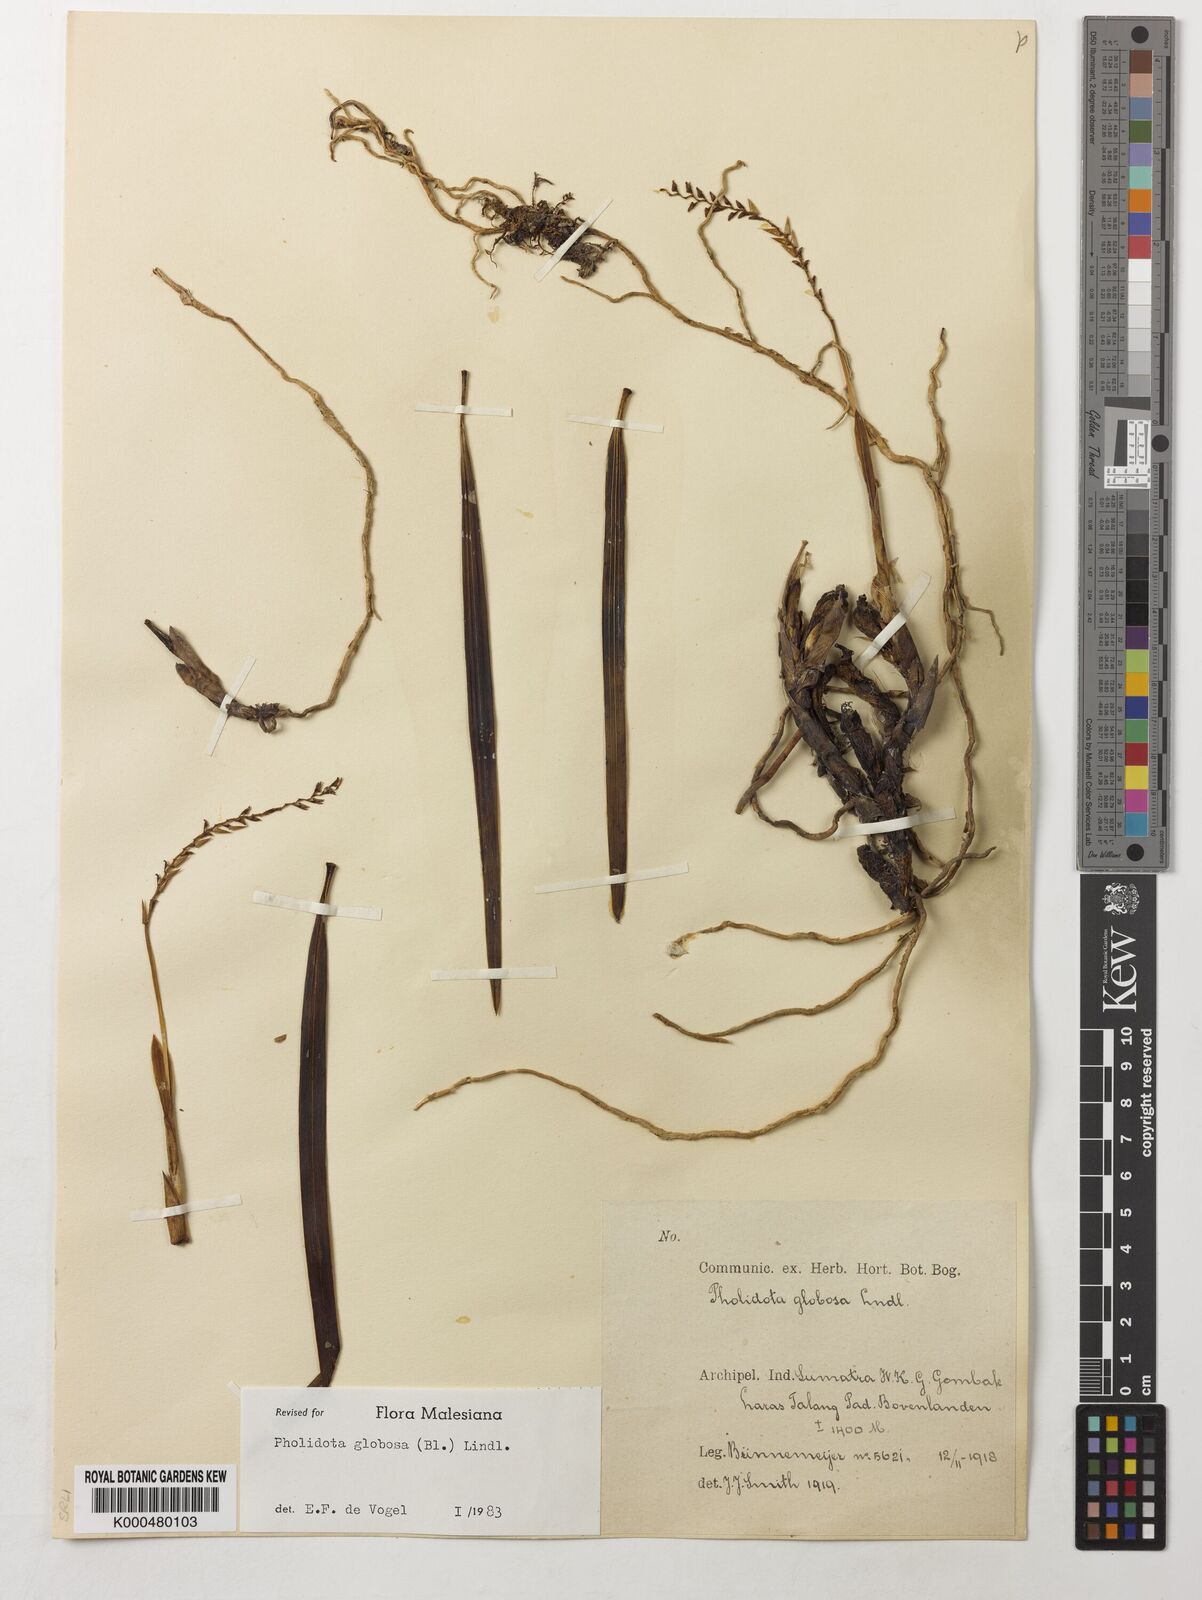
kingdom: Plantae
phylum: Tracheophyta
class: Liliopsida
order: Asparagales
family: Orchidaceae
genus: Coelogyne
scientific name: Coelogyne globosa
